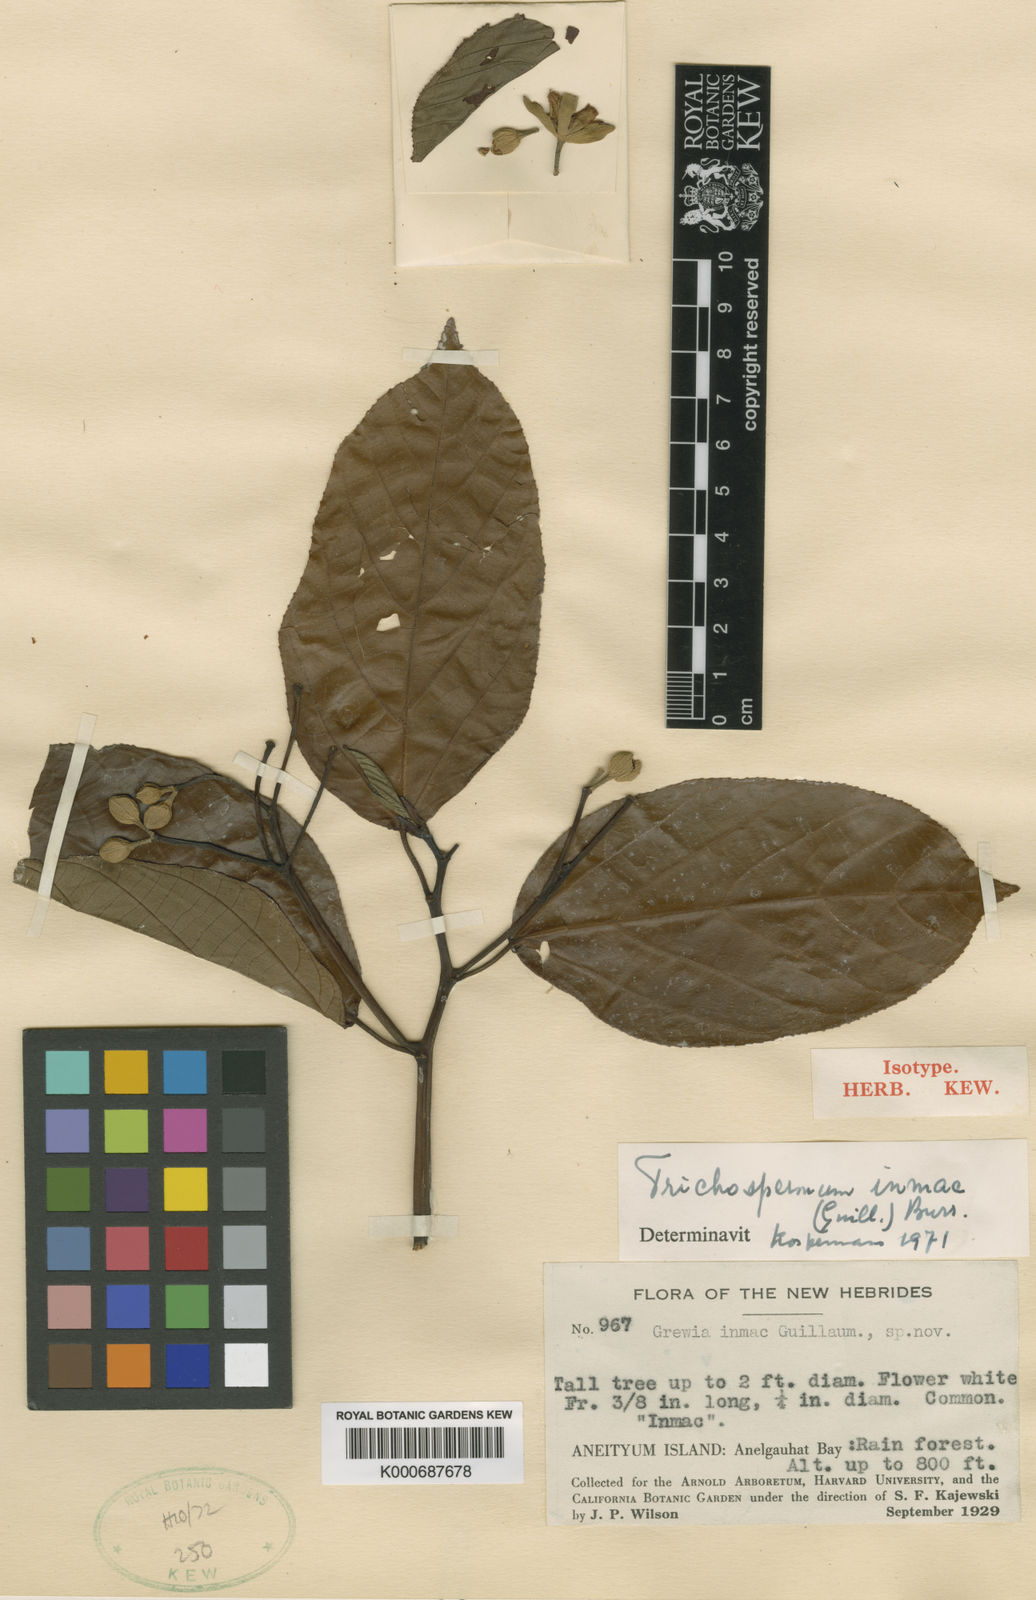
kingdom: Plantae
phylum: Tracheophyta
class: Magnoliopsida
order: Malvales
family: Malvaceae
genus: Trichospermum
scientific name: Trichospermum inmac
